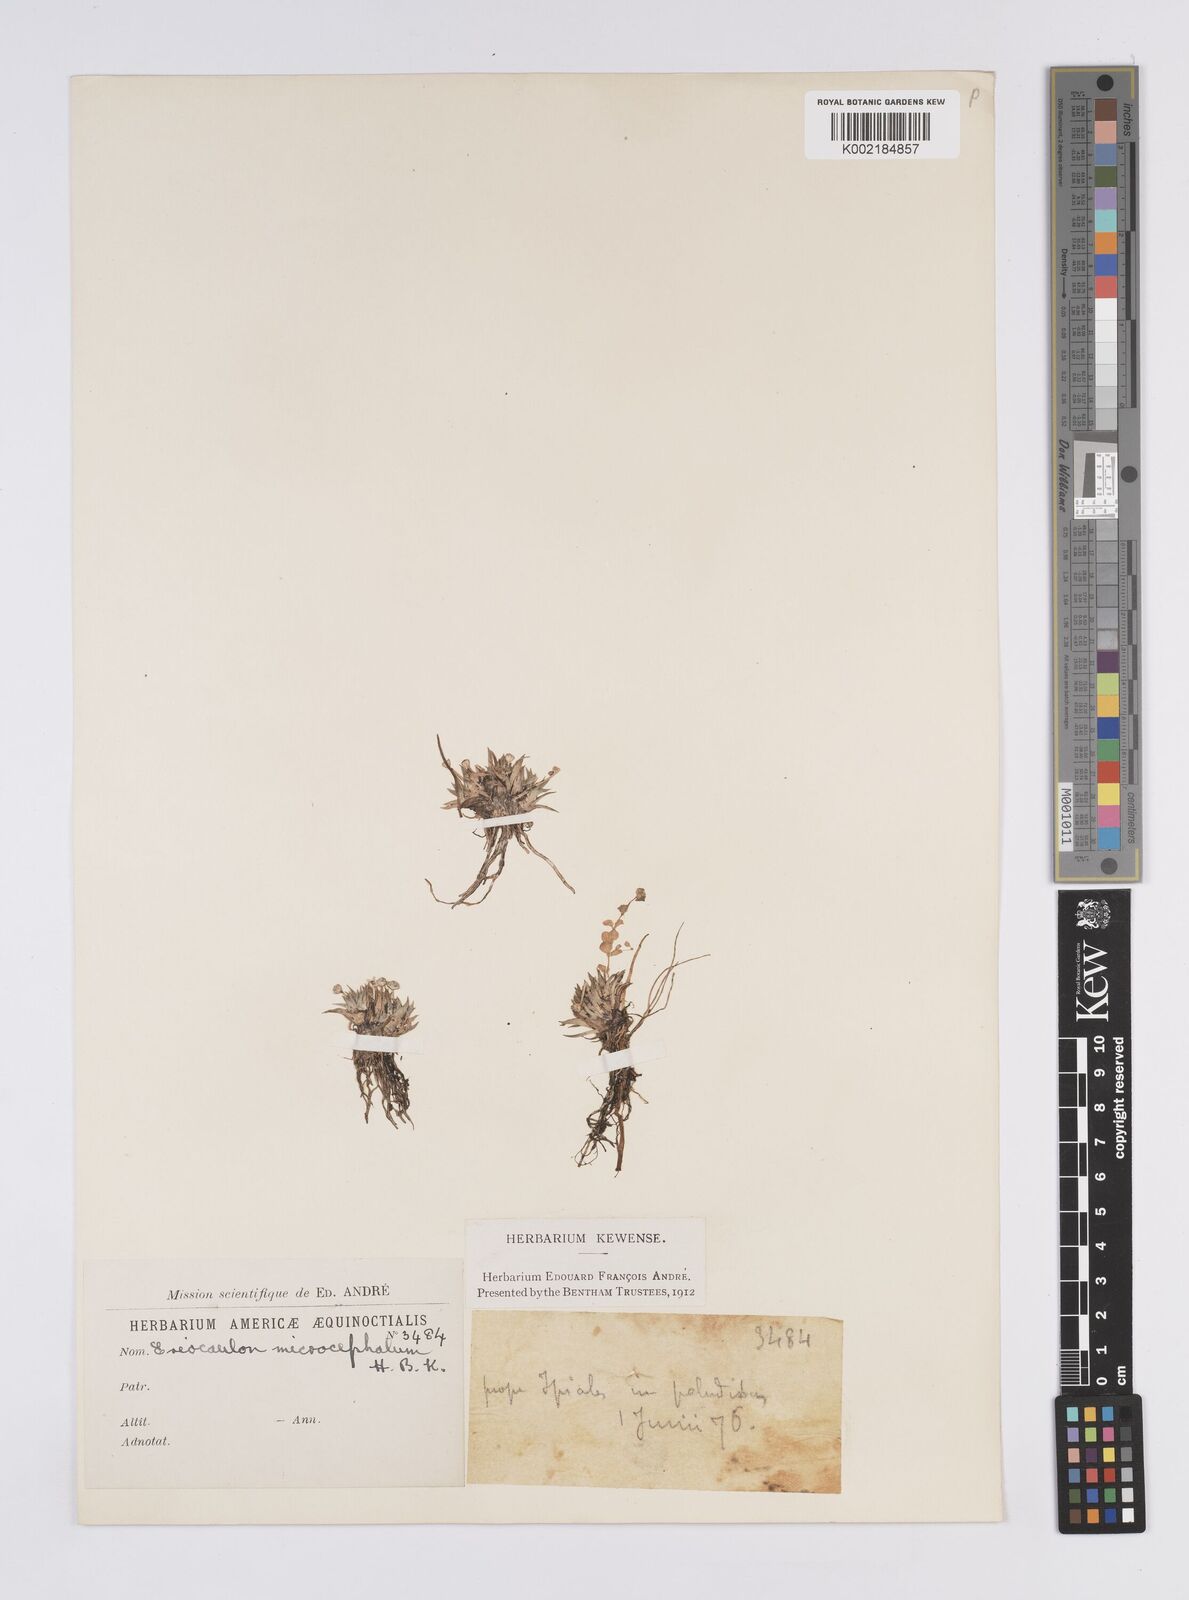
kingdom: Plantae
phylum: Tracheophyta
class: Liliopsida
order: Poales
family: Eriocaulaceae
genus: Eriocaulon
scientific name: Eriocaulon benthamii
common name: Bentham's pipewort
